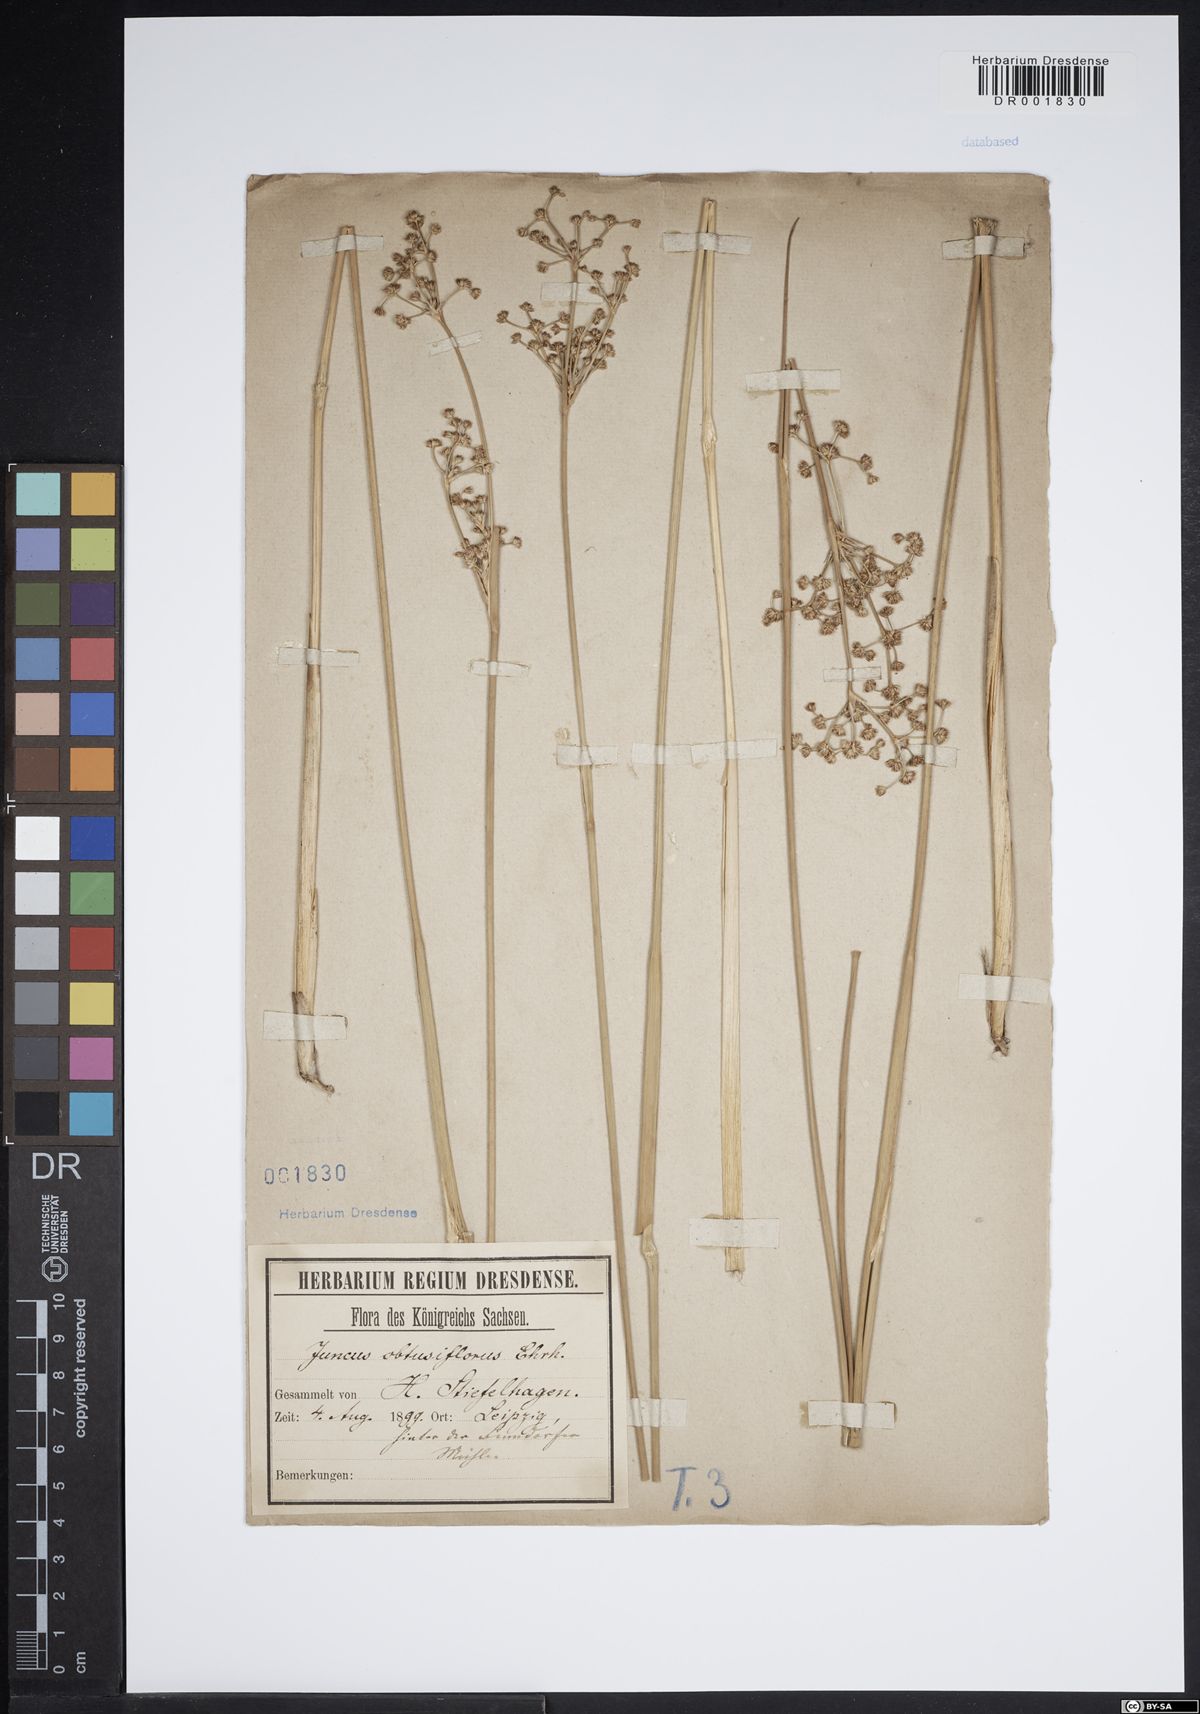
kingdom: Plantae
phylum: Tracheophyta
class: Liliopsida
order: Poales
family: Juncaceae
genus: Juncus
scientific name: Juncus subnodulosus
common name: Blunt-flowered rush
